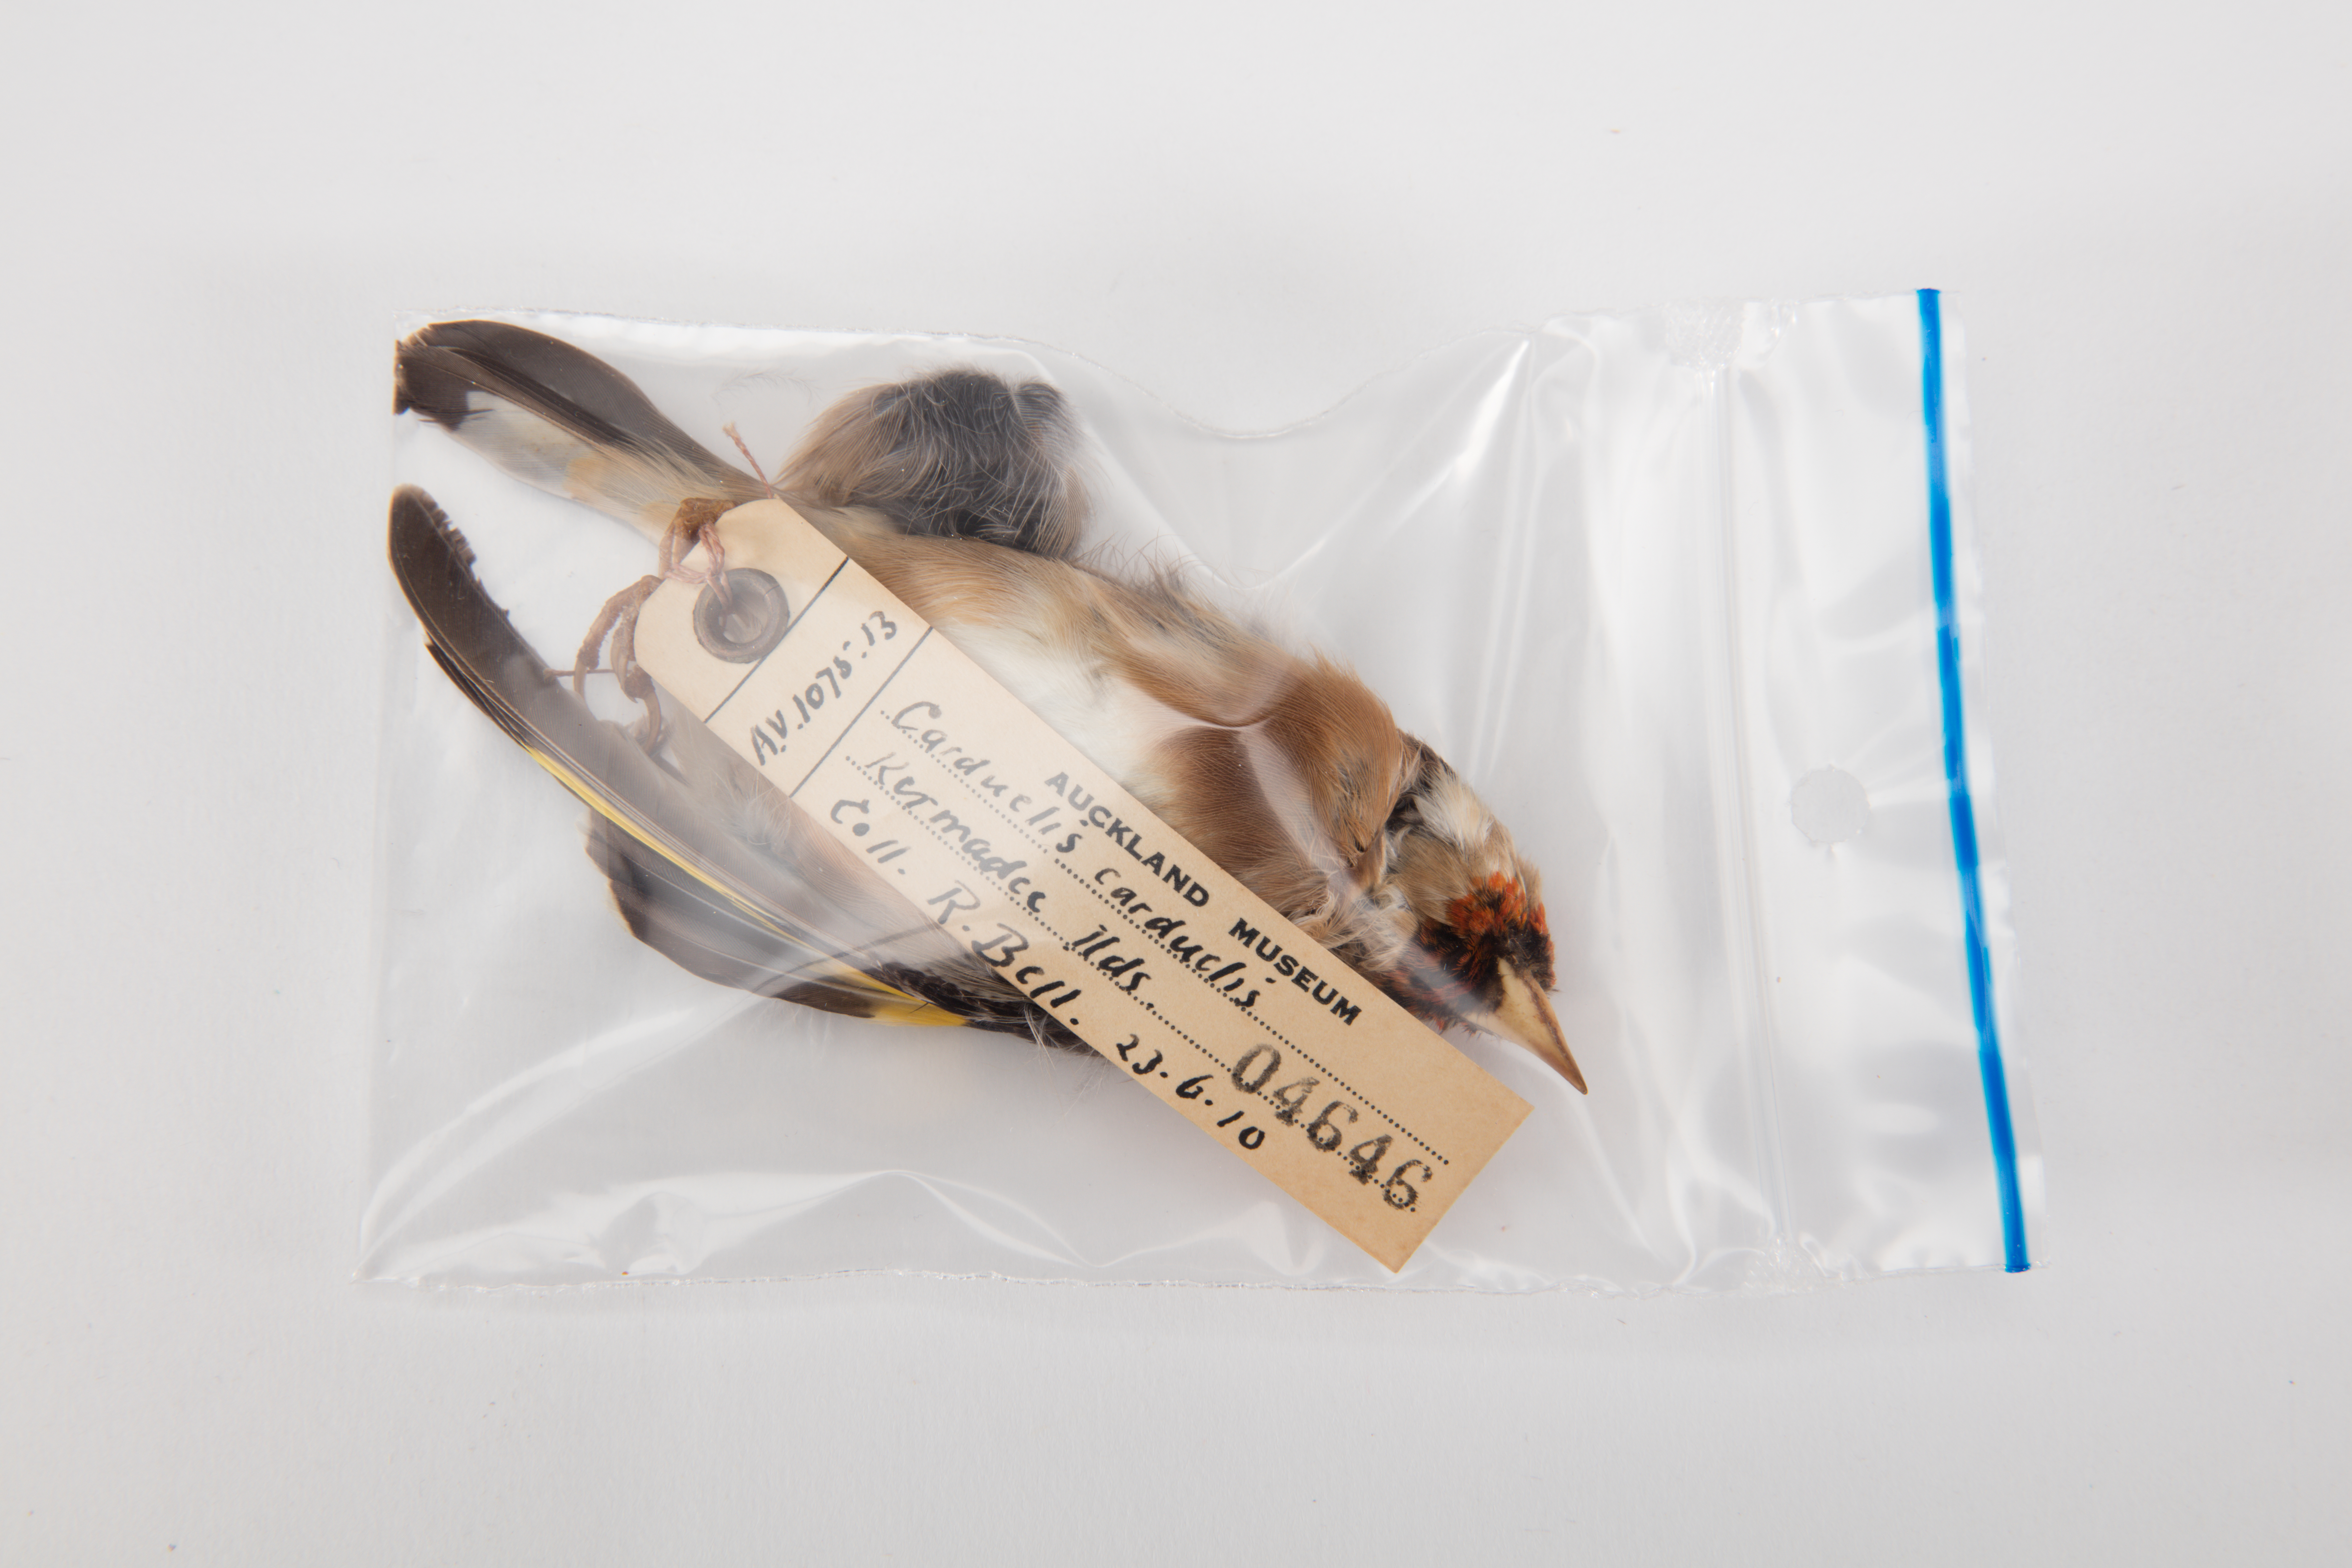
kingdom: Animalia
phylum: Chordata
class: Aves
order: Passeriformes
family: Fringillidae
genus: Carduelis
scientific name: Carduelis carduelis
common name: European goldfinch
